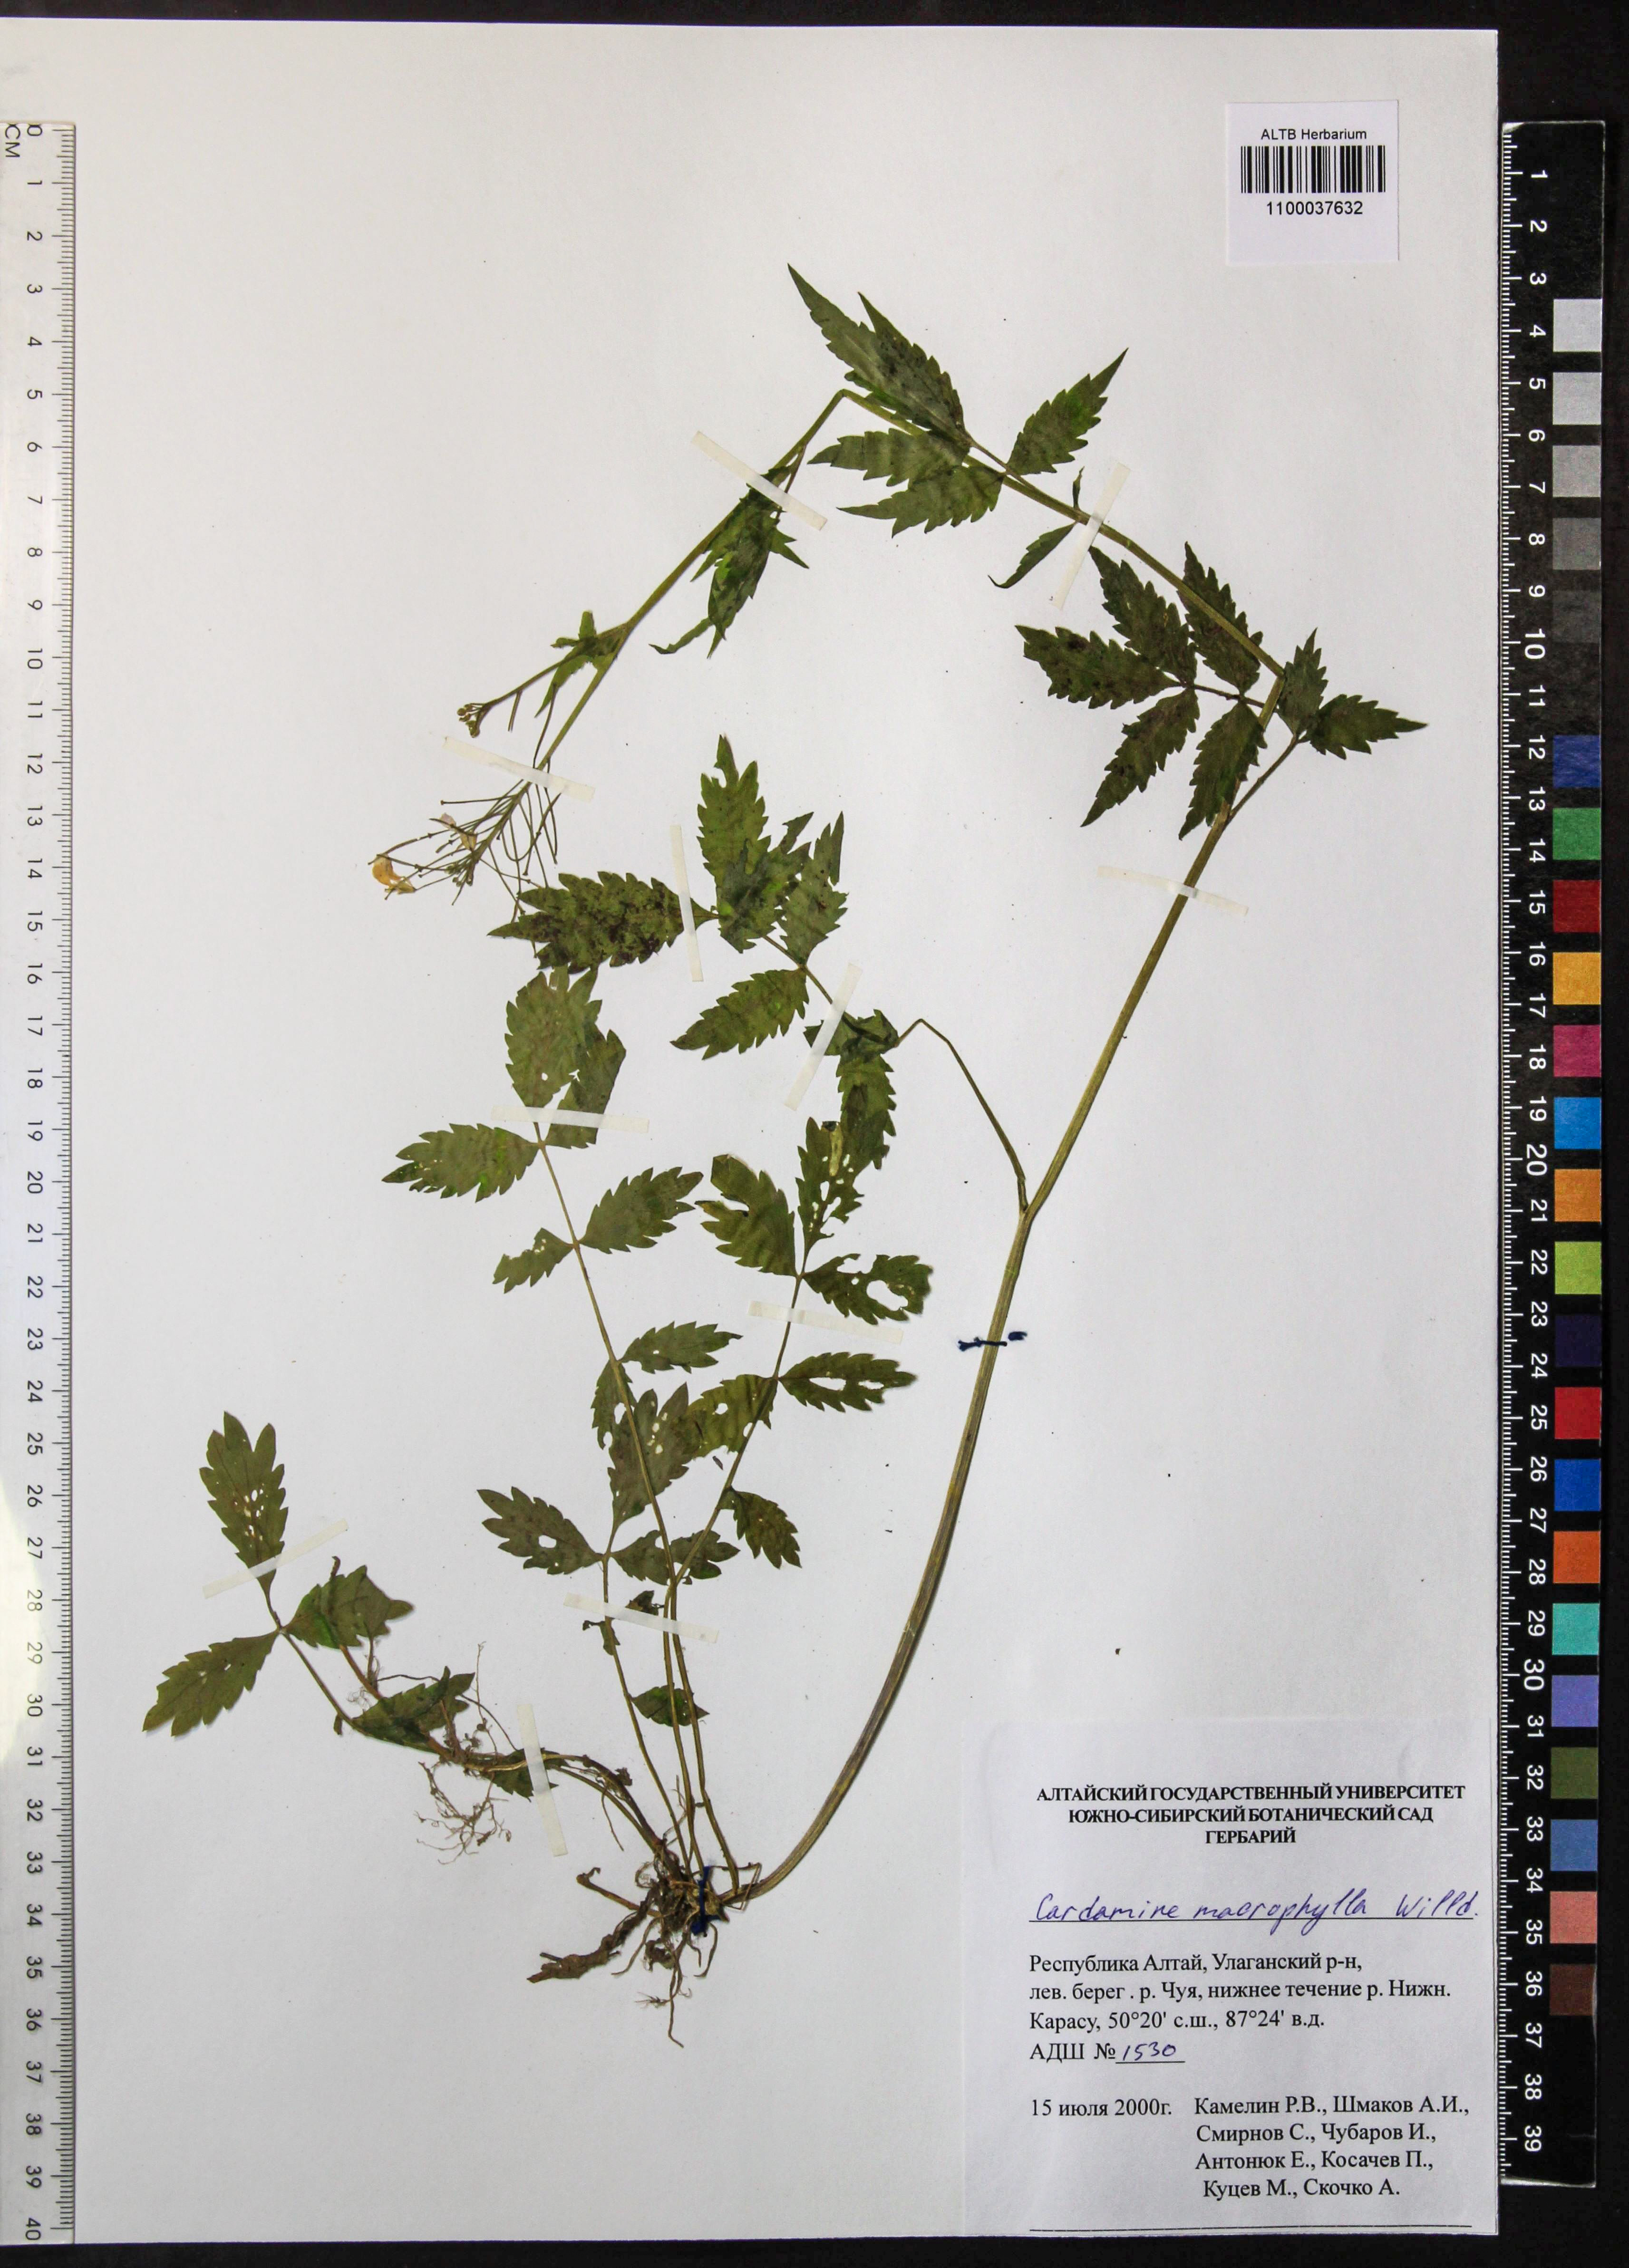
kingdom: Plantae
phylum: Tracheophyta
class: Magnoliopsida
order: Brassicales
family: Brassicaceae
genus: Cardamine
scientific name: Cardamine macrophylla
